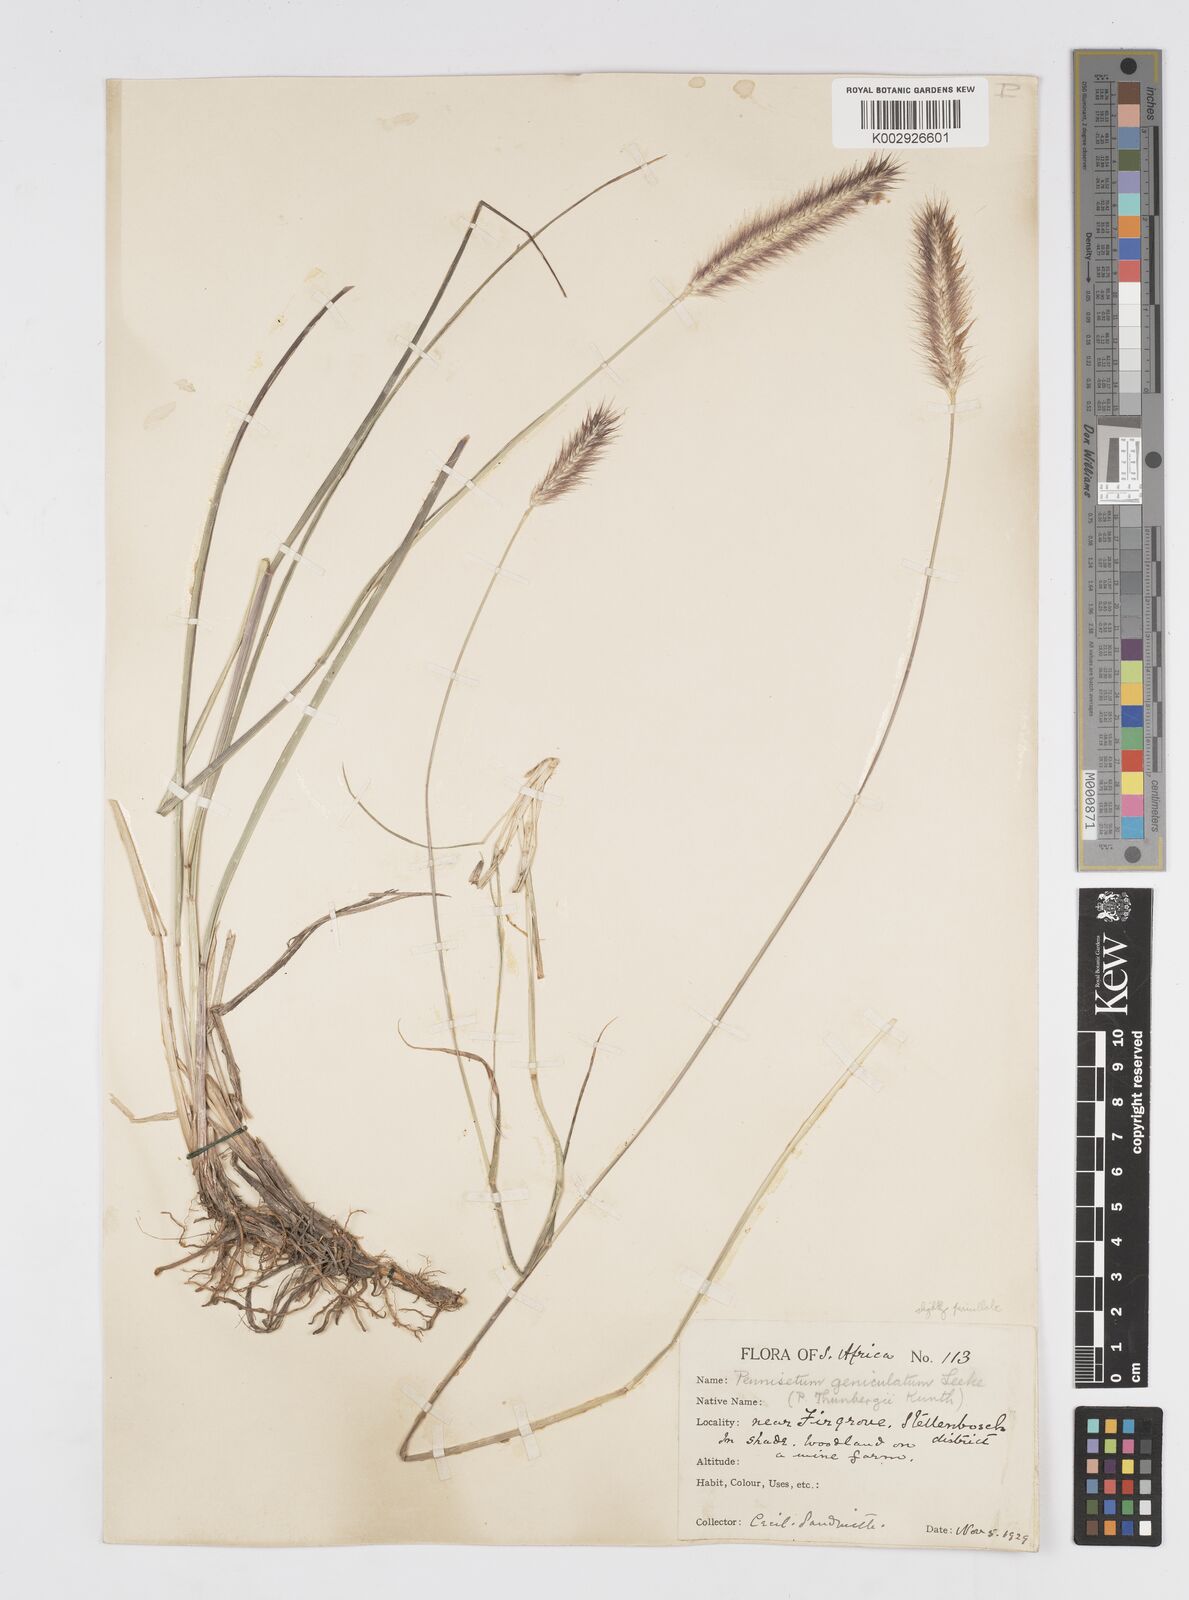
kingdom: Plantae
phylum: Tracheophyta
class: Liliopsida
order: Poales
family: Poaceae
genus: Cenchrus
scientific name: Cenchrus geniculatus
